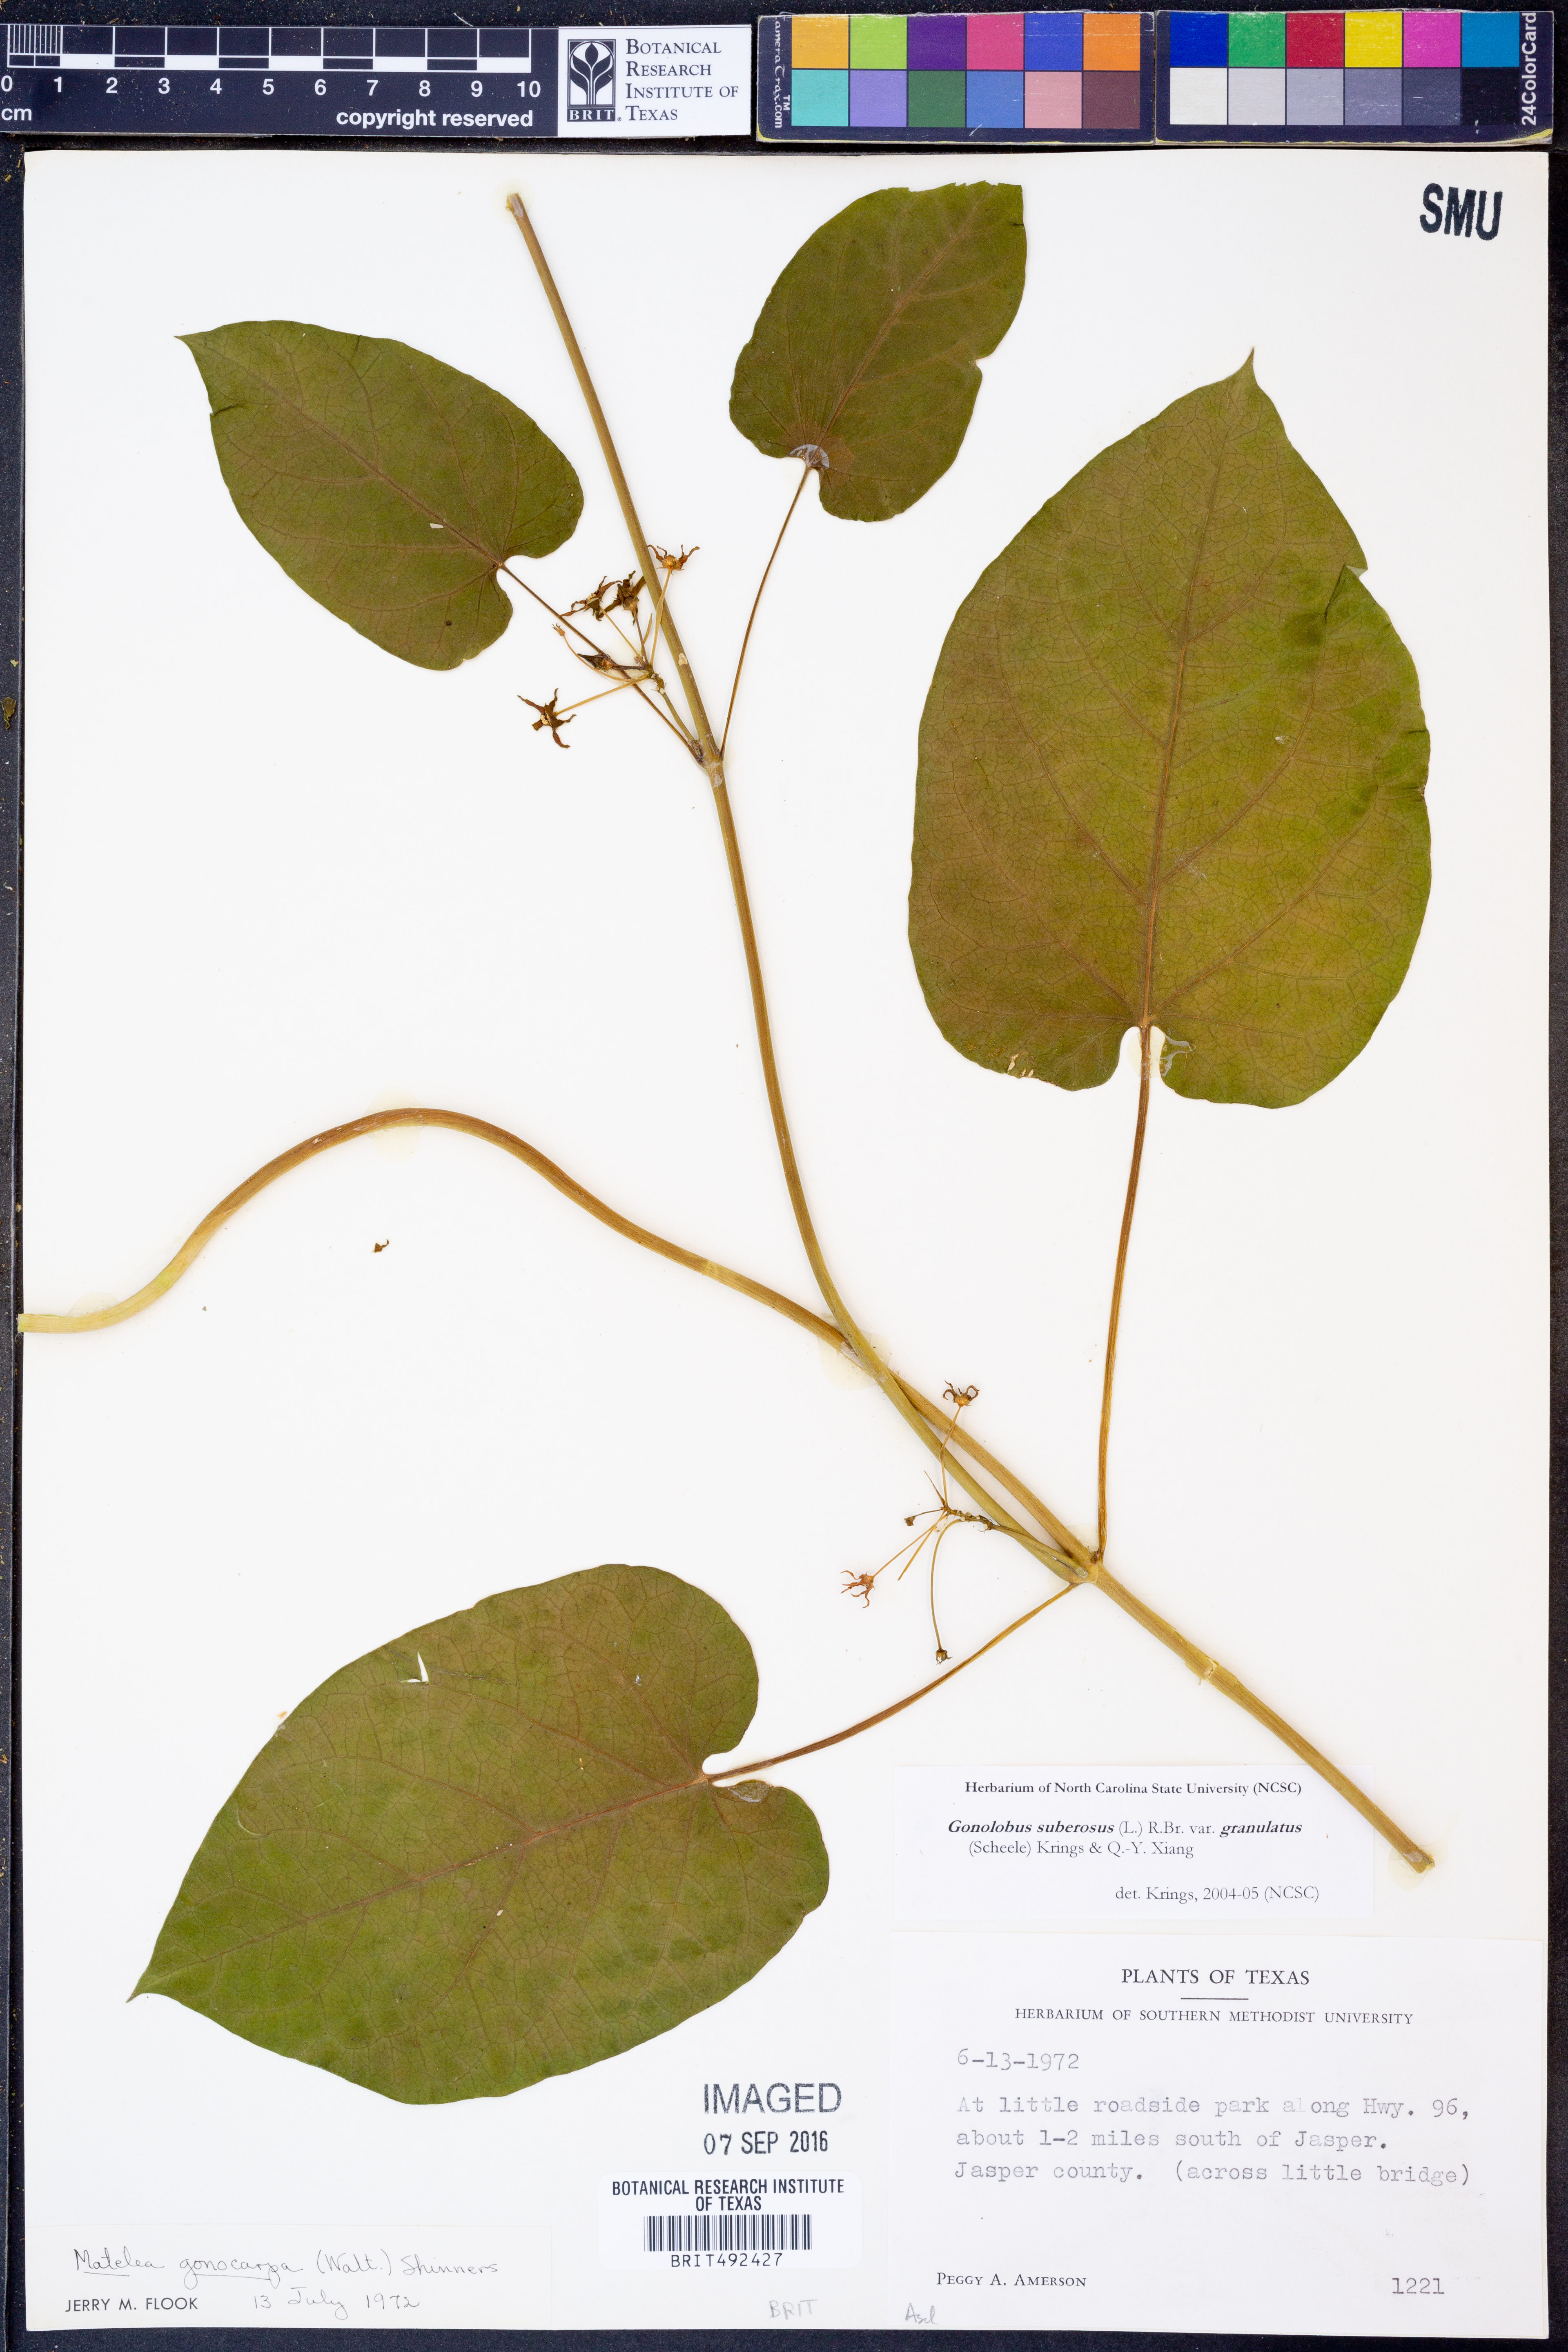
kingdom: Plantae
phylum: Tracheophyta
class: Magnoliopsida
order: Gentianales
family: Apocynaceae
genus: Gonolobus
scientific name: Gonolobus suberosus
